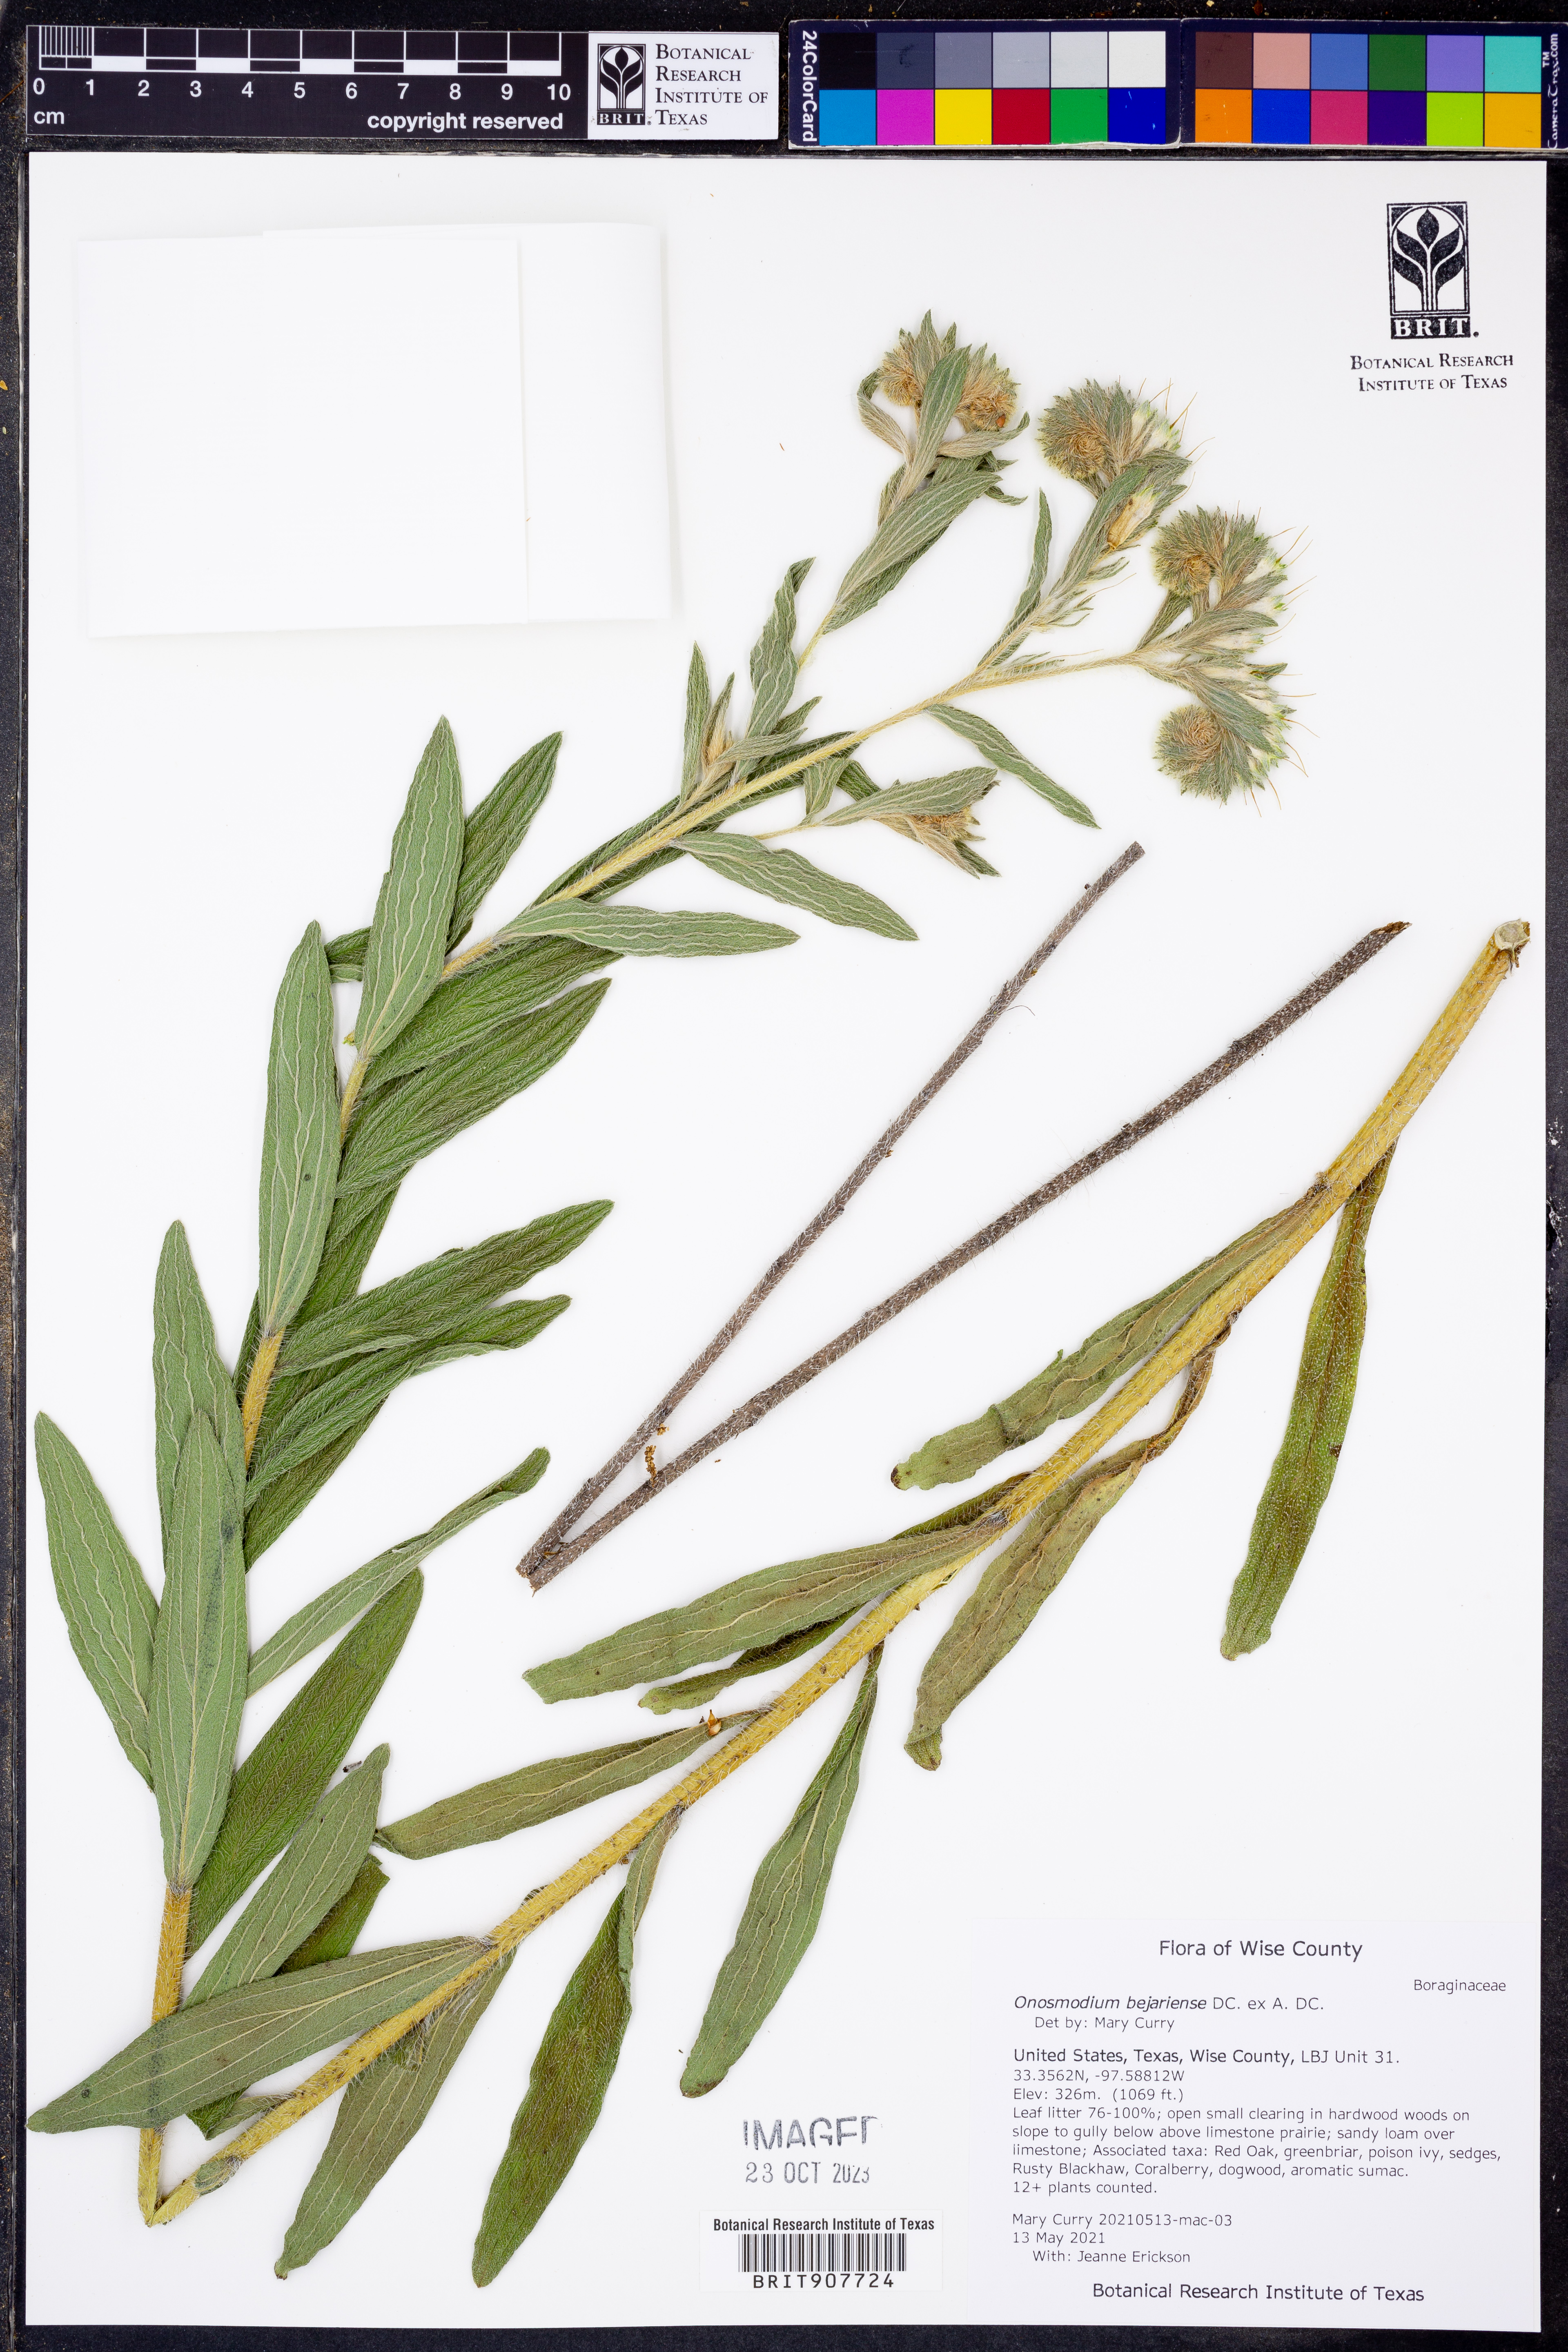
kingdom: Plantae
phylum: Tracheophyta
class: Magnoliopsida
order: Boraginales
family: Boraginaceae
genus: Lithospermum
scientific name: Lithospermum molle
